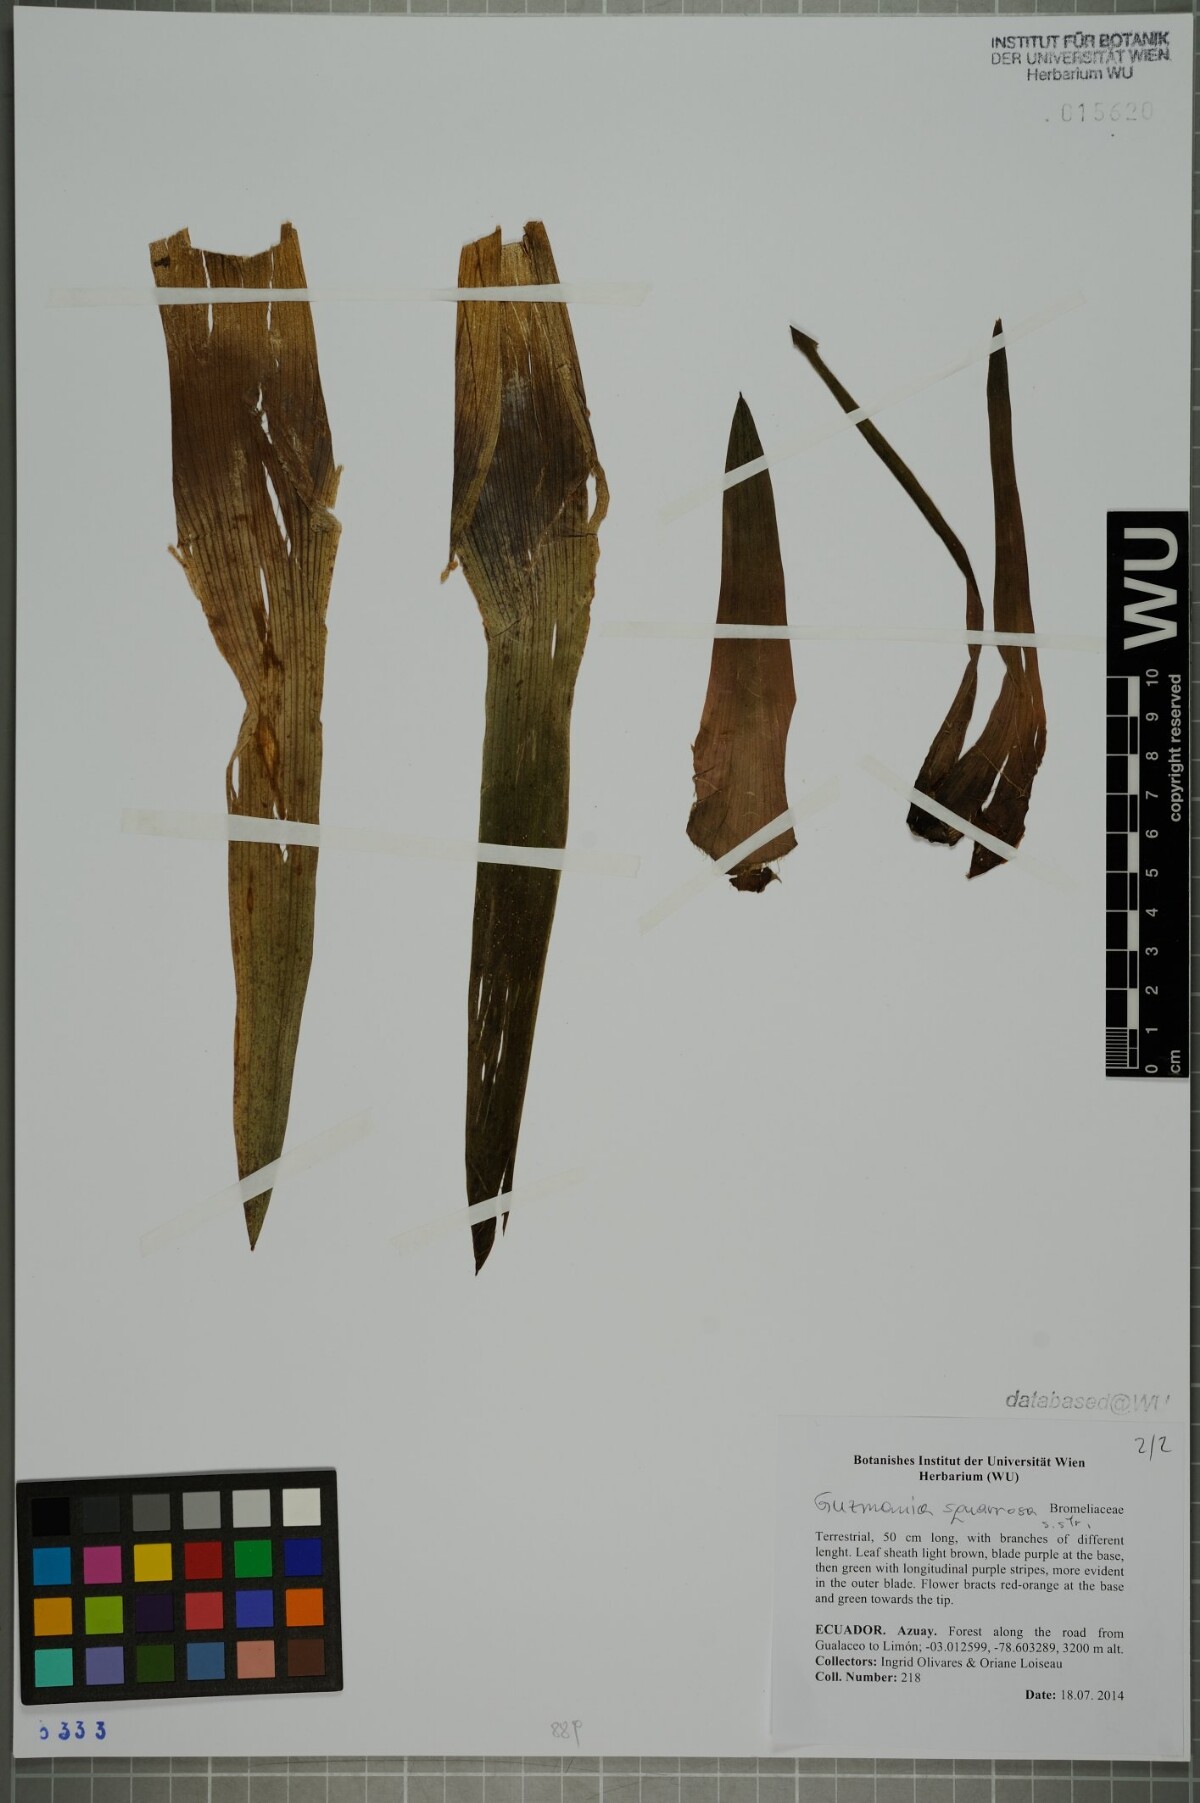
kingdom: Plantae
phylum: Tracheophyta
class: Liliopsida
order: Poales
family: Bromeliaceae
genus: Guzmania
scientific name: Guzmania squarrosa
